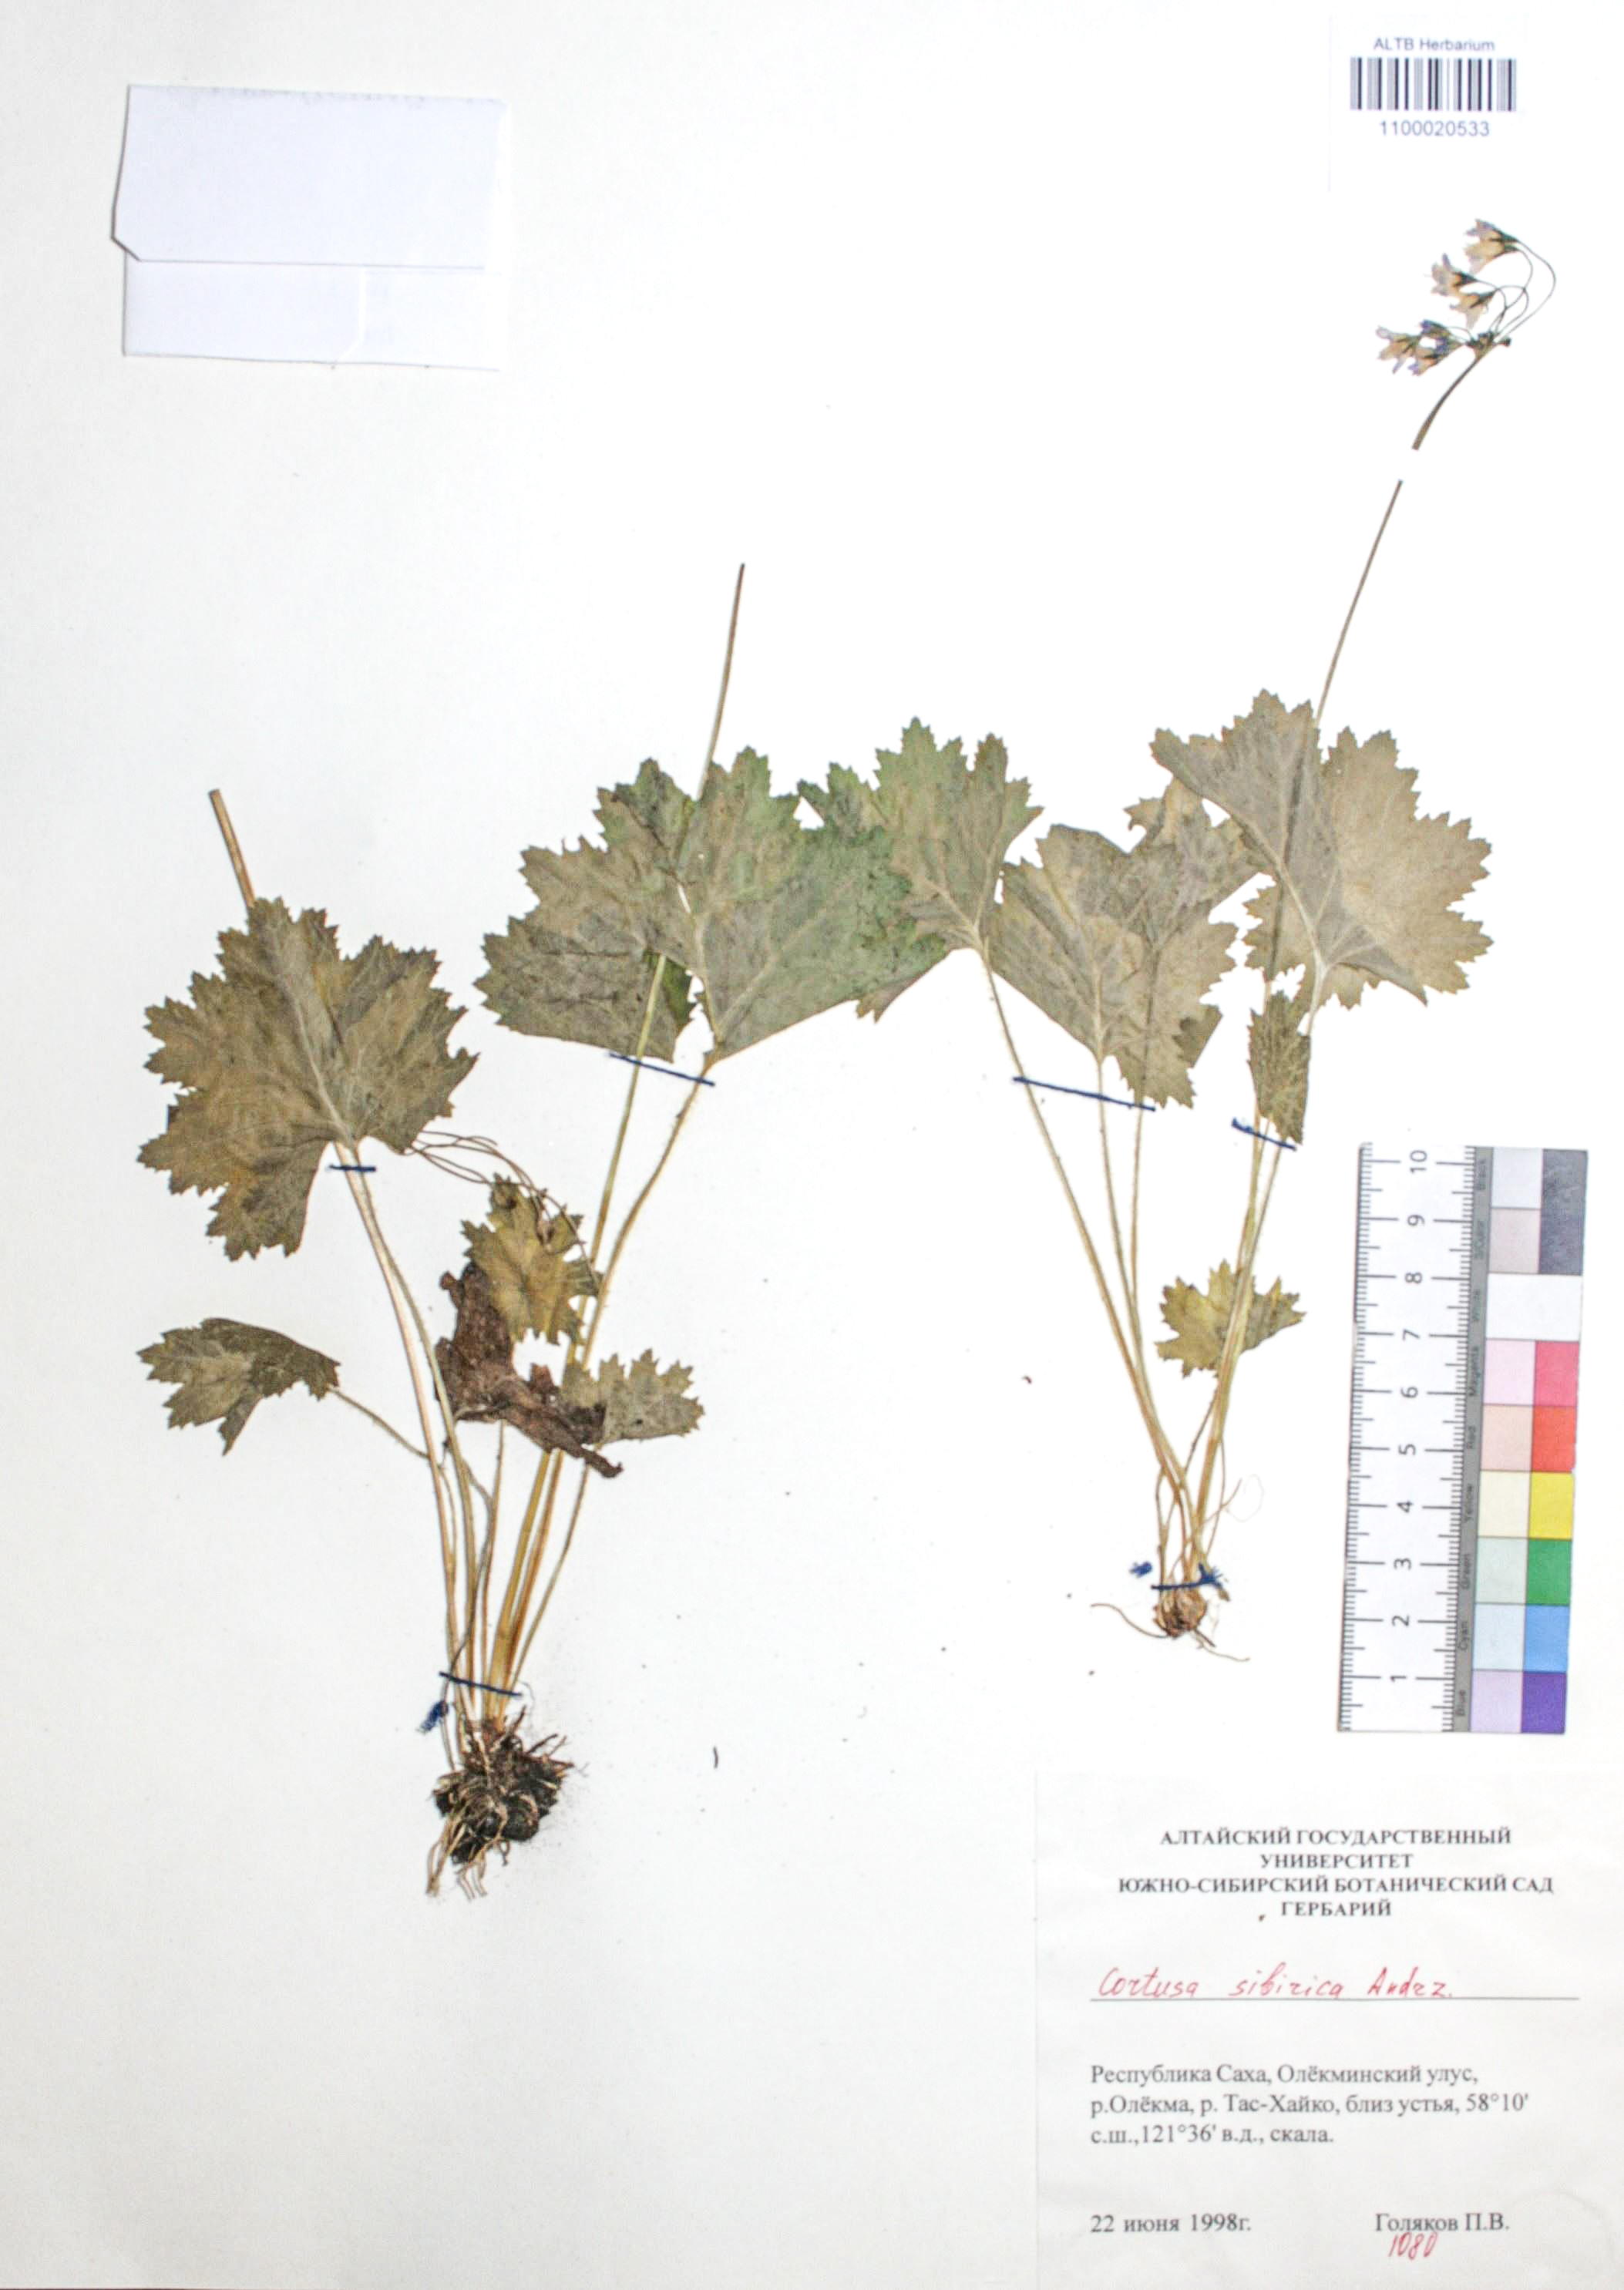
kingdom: Plantae
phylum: Tracheophyta
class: Magnoliopsida
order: Ericales
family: Primulaceae
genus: Primula
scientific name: Primula matthioli
